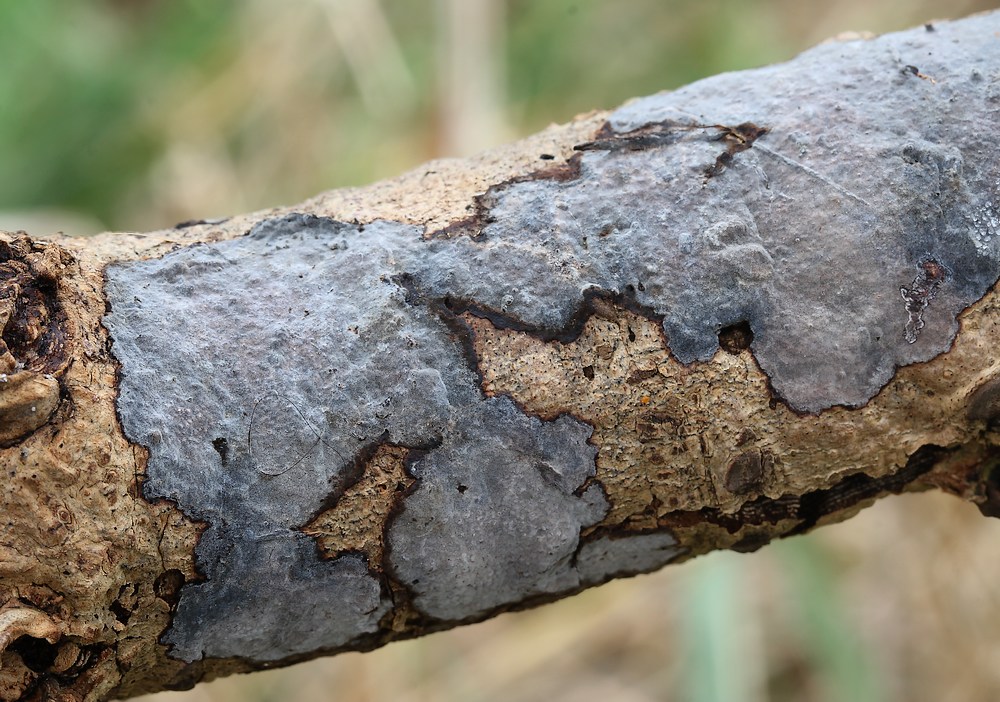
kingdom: Fungi
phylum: Basidiomycota
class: Agaricomycetes
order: Russulales
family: Peniophoraceae
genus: Peniophora
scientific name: Peniophora limitata
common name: mørkrandet voksskind
